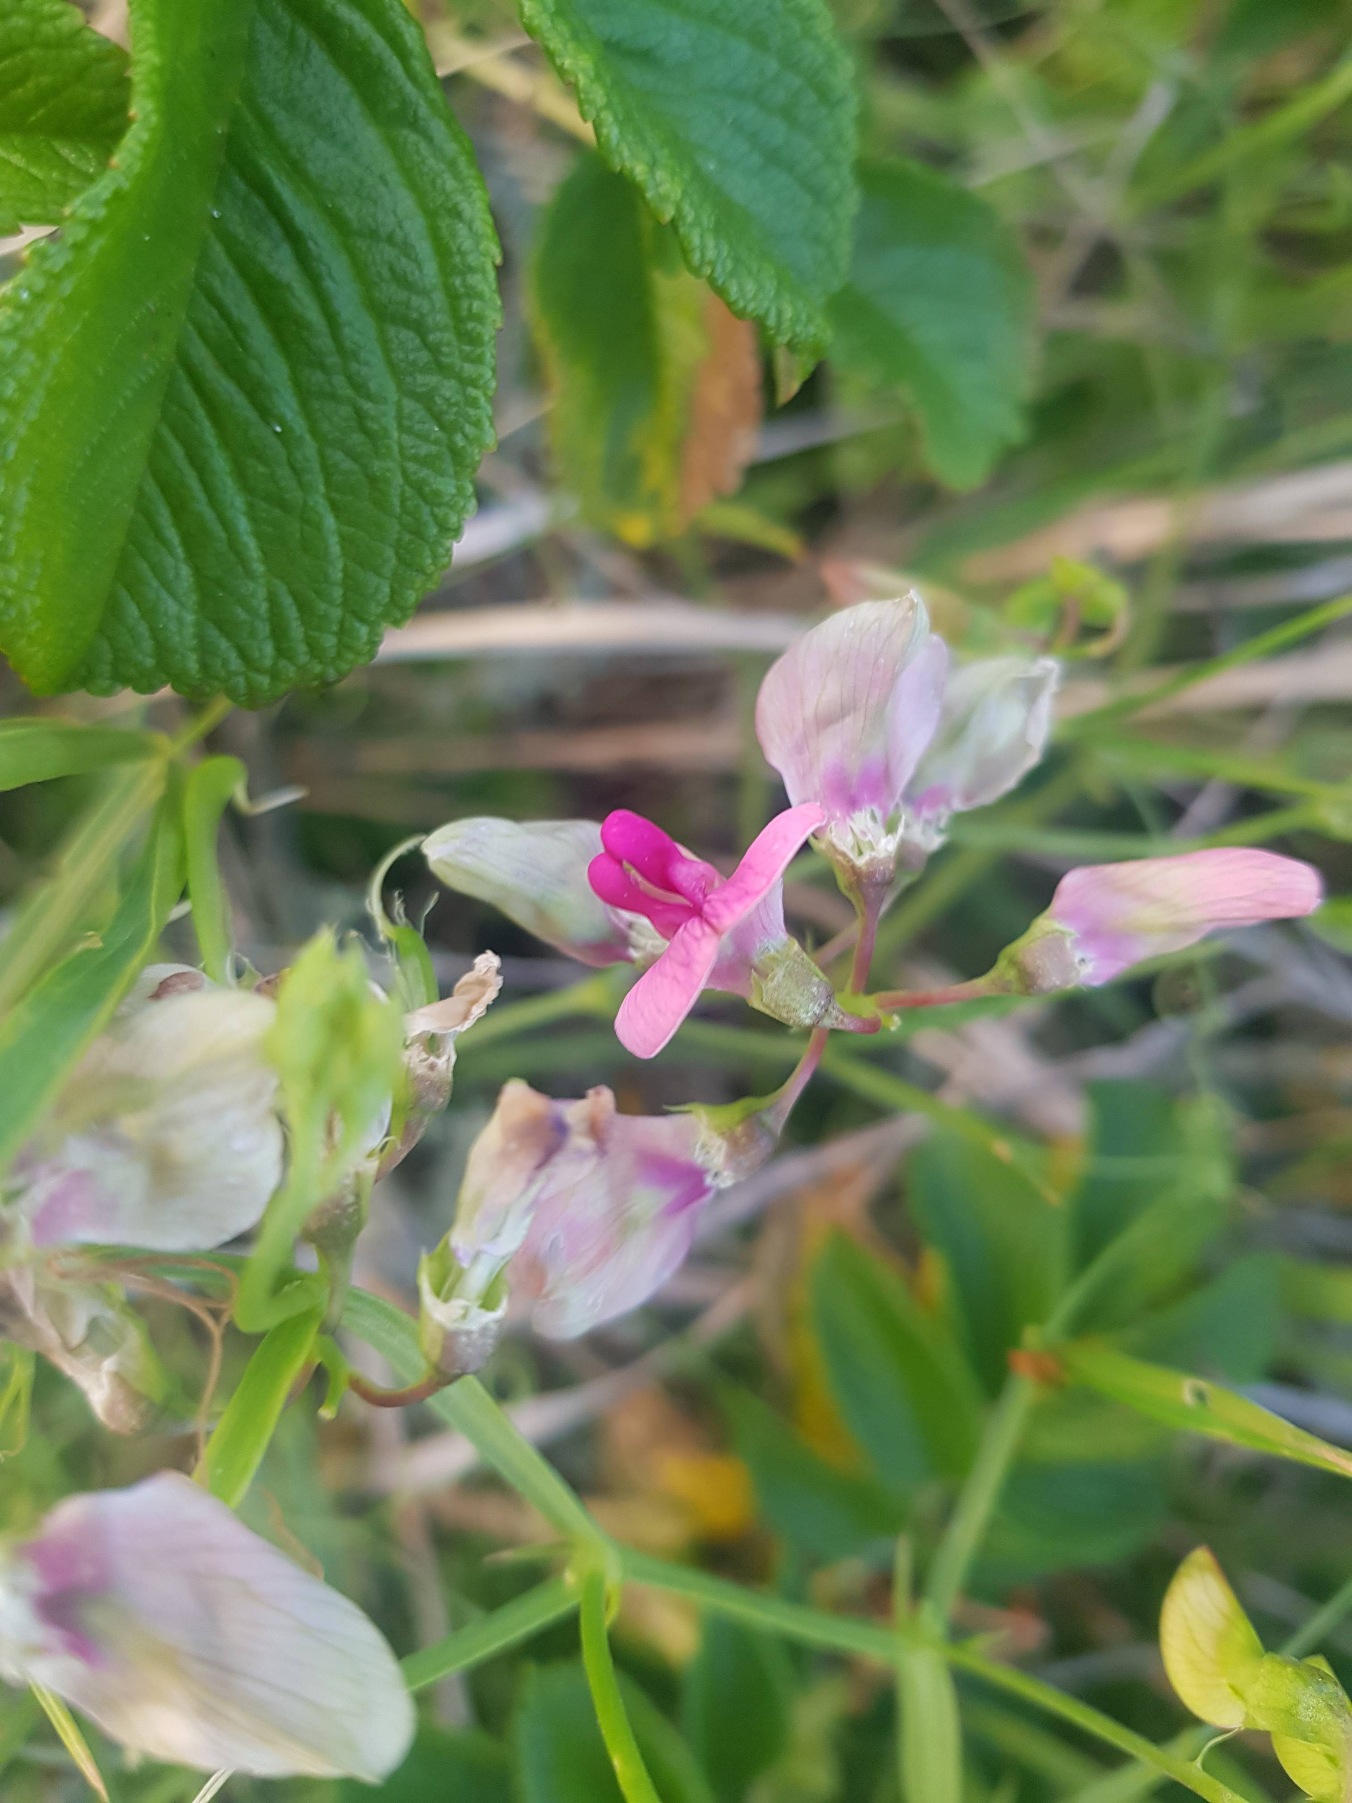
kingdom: Plantae
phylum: Tracheophyta
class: Magnoliopsida
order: Fabales
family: Fabaceae
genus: Lathyrus
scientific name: Lathyrus
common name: Fladbælgslægten
